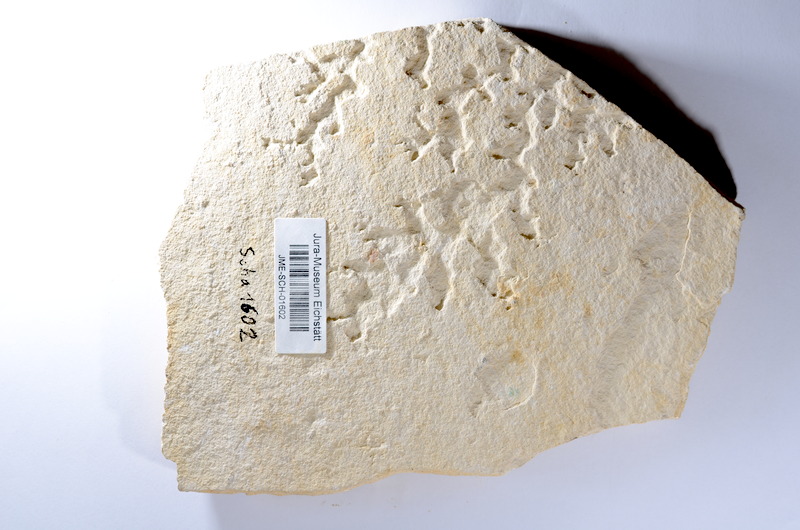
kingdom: Animalia
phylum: Chordata
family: Ascalaboidae
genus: Tharsis
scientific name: Tharsis dubius
